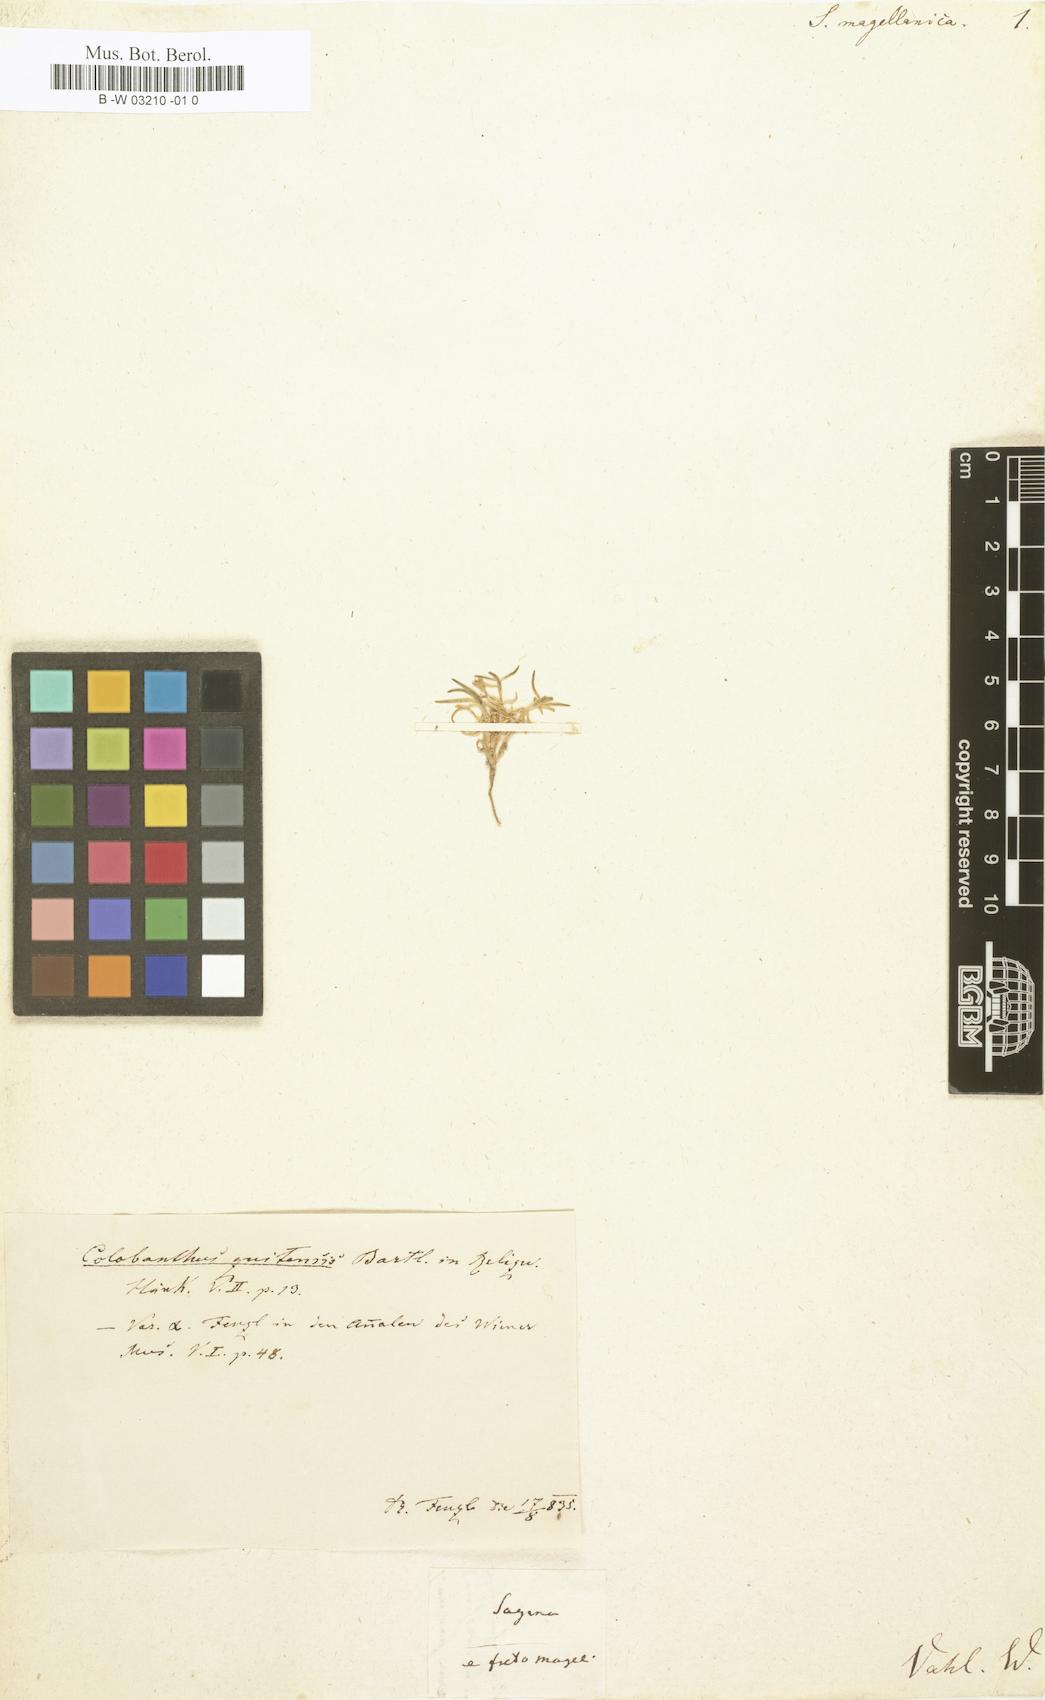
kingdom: Plantae
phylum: Tracheophyta
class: Magnoliopsida
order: Caryophyllales
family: Caryophyllaceae
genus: Colobanthus
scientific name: Colobanthus quitensis
